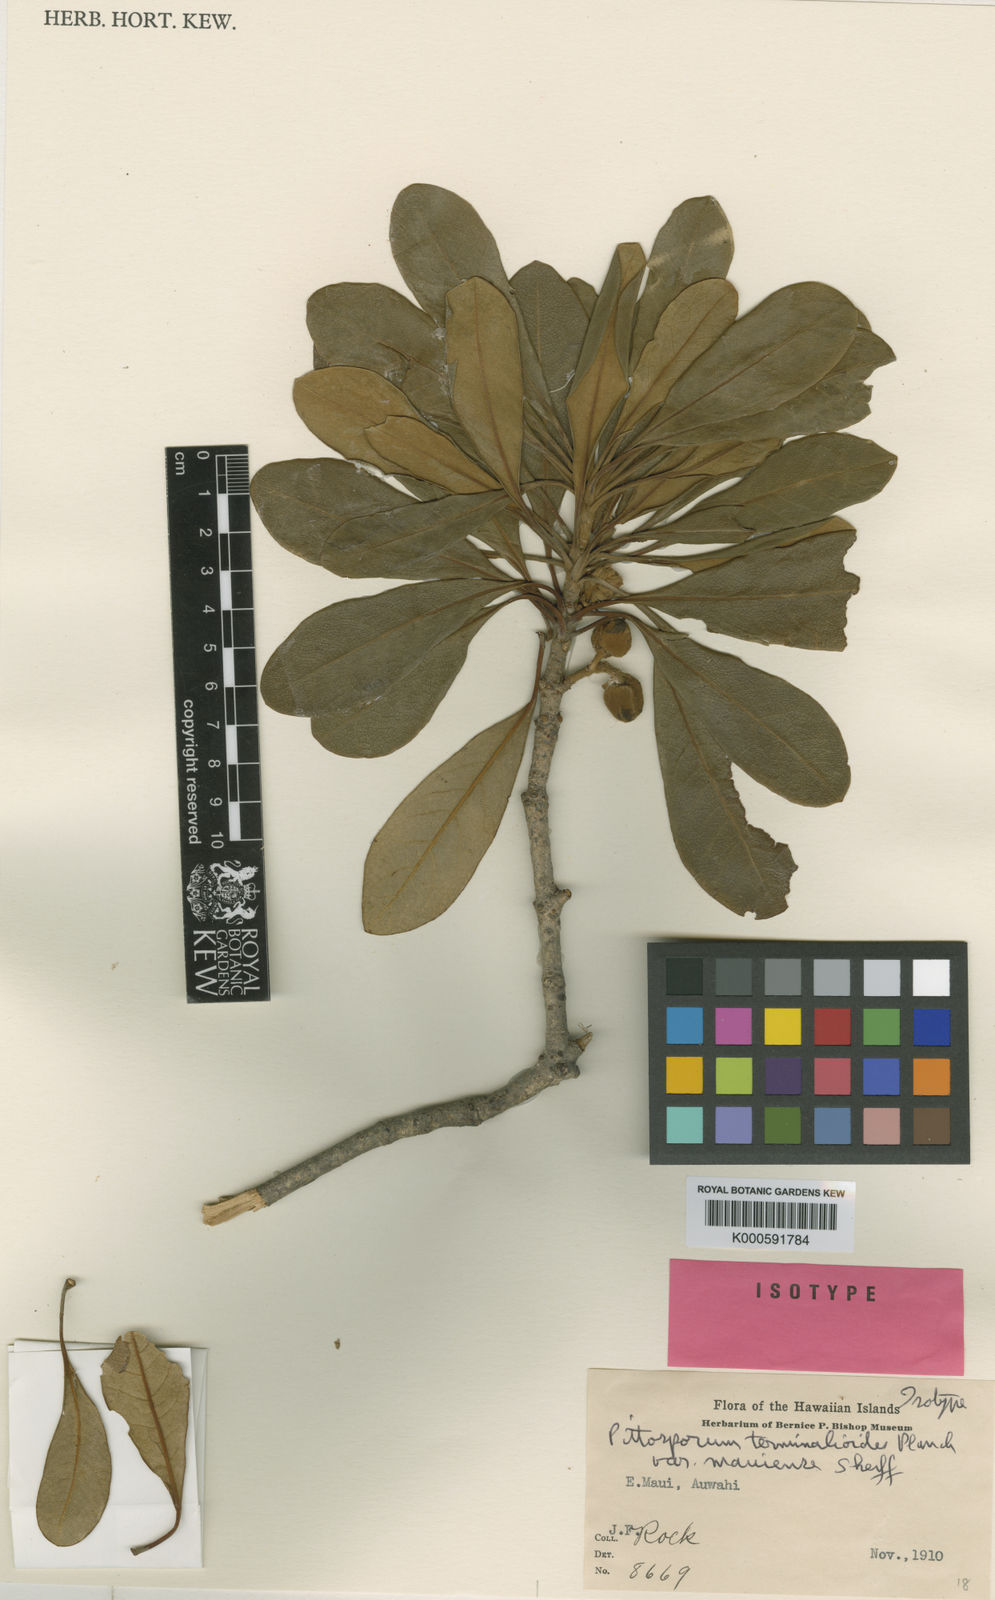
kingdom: Plantae
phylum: Tracheophyta
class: Magnoliopsida
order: Apiales
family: Pittosporaceae
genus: Pittosporum
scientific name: Pittosporum terminalioides
